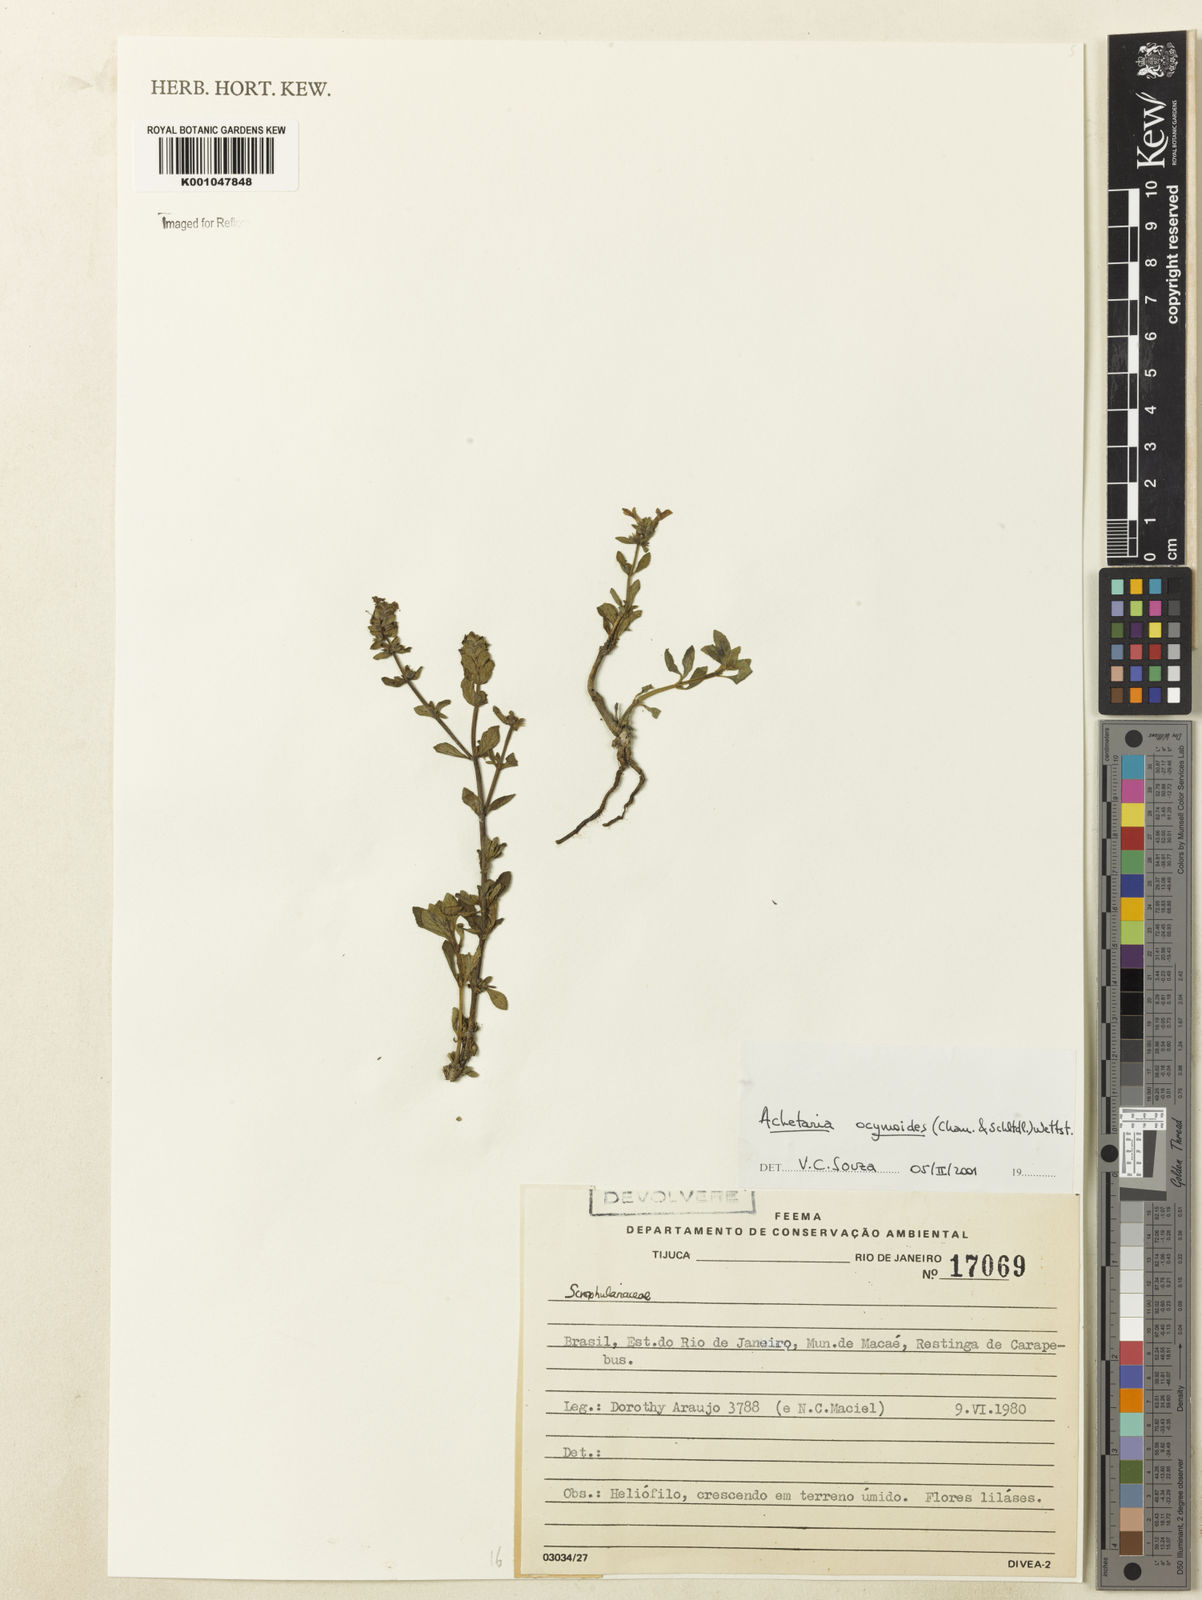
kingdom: Plantae
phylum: Tracheophyta
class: Magnoliopsida
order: Lamiales
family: Plantaginaceae
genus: Matourea
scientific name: Matourea ocymoides
